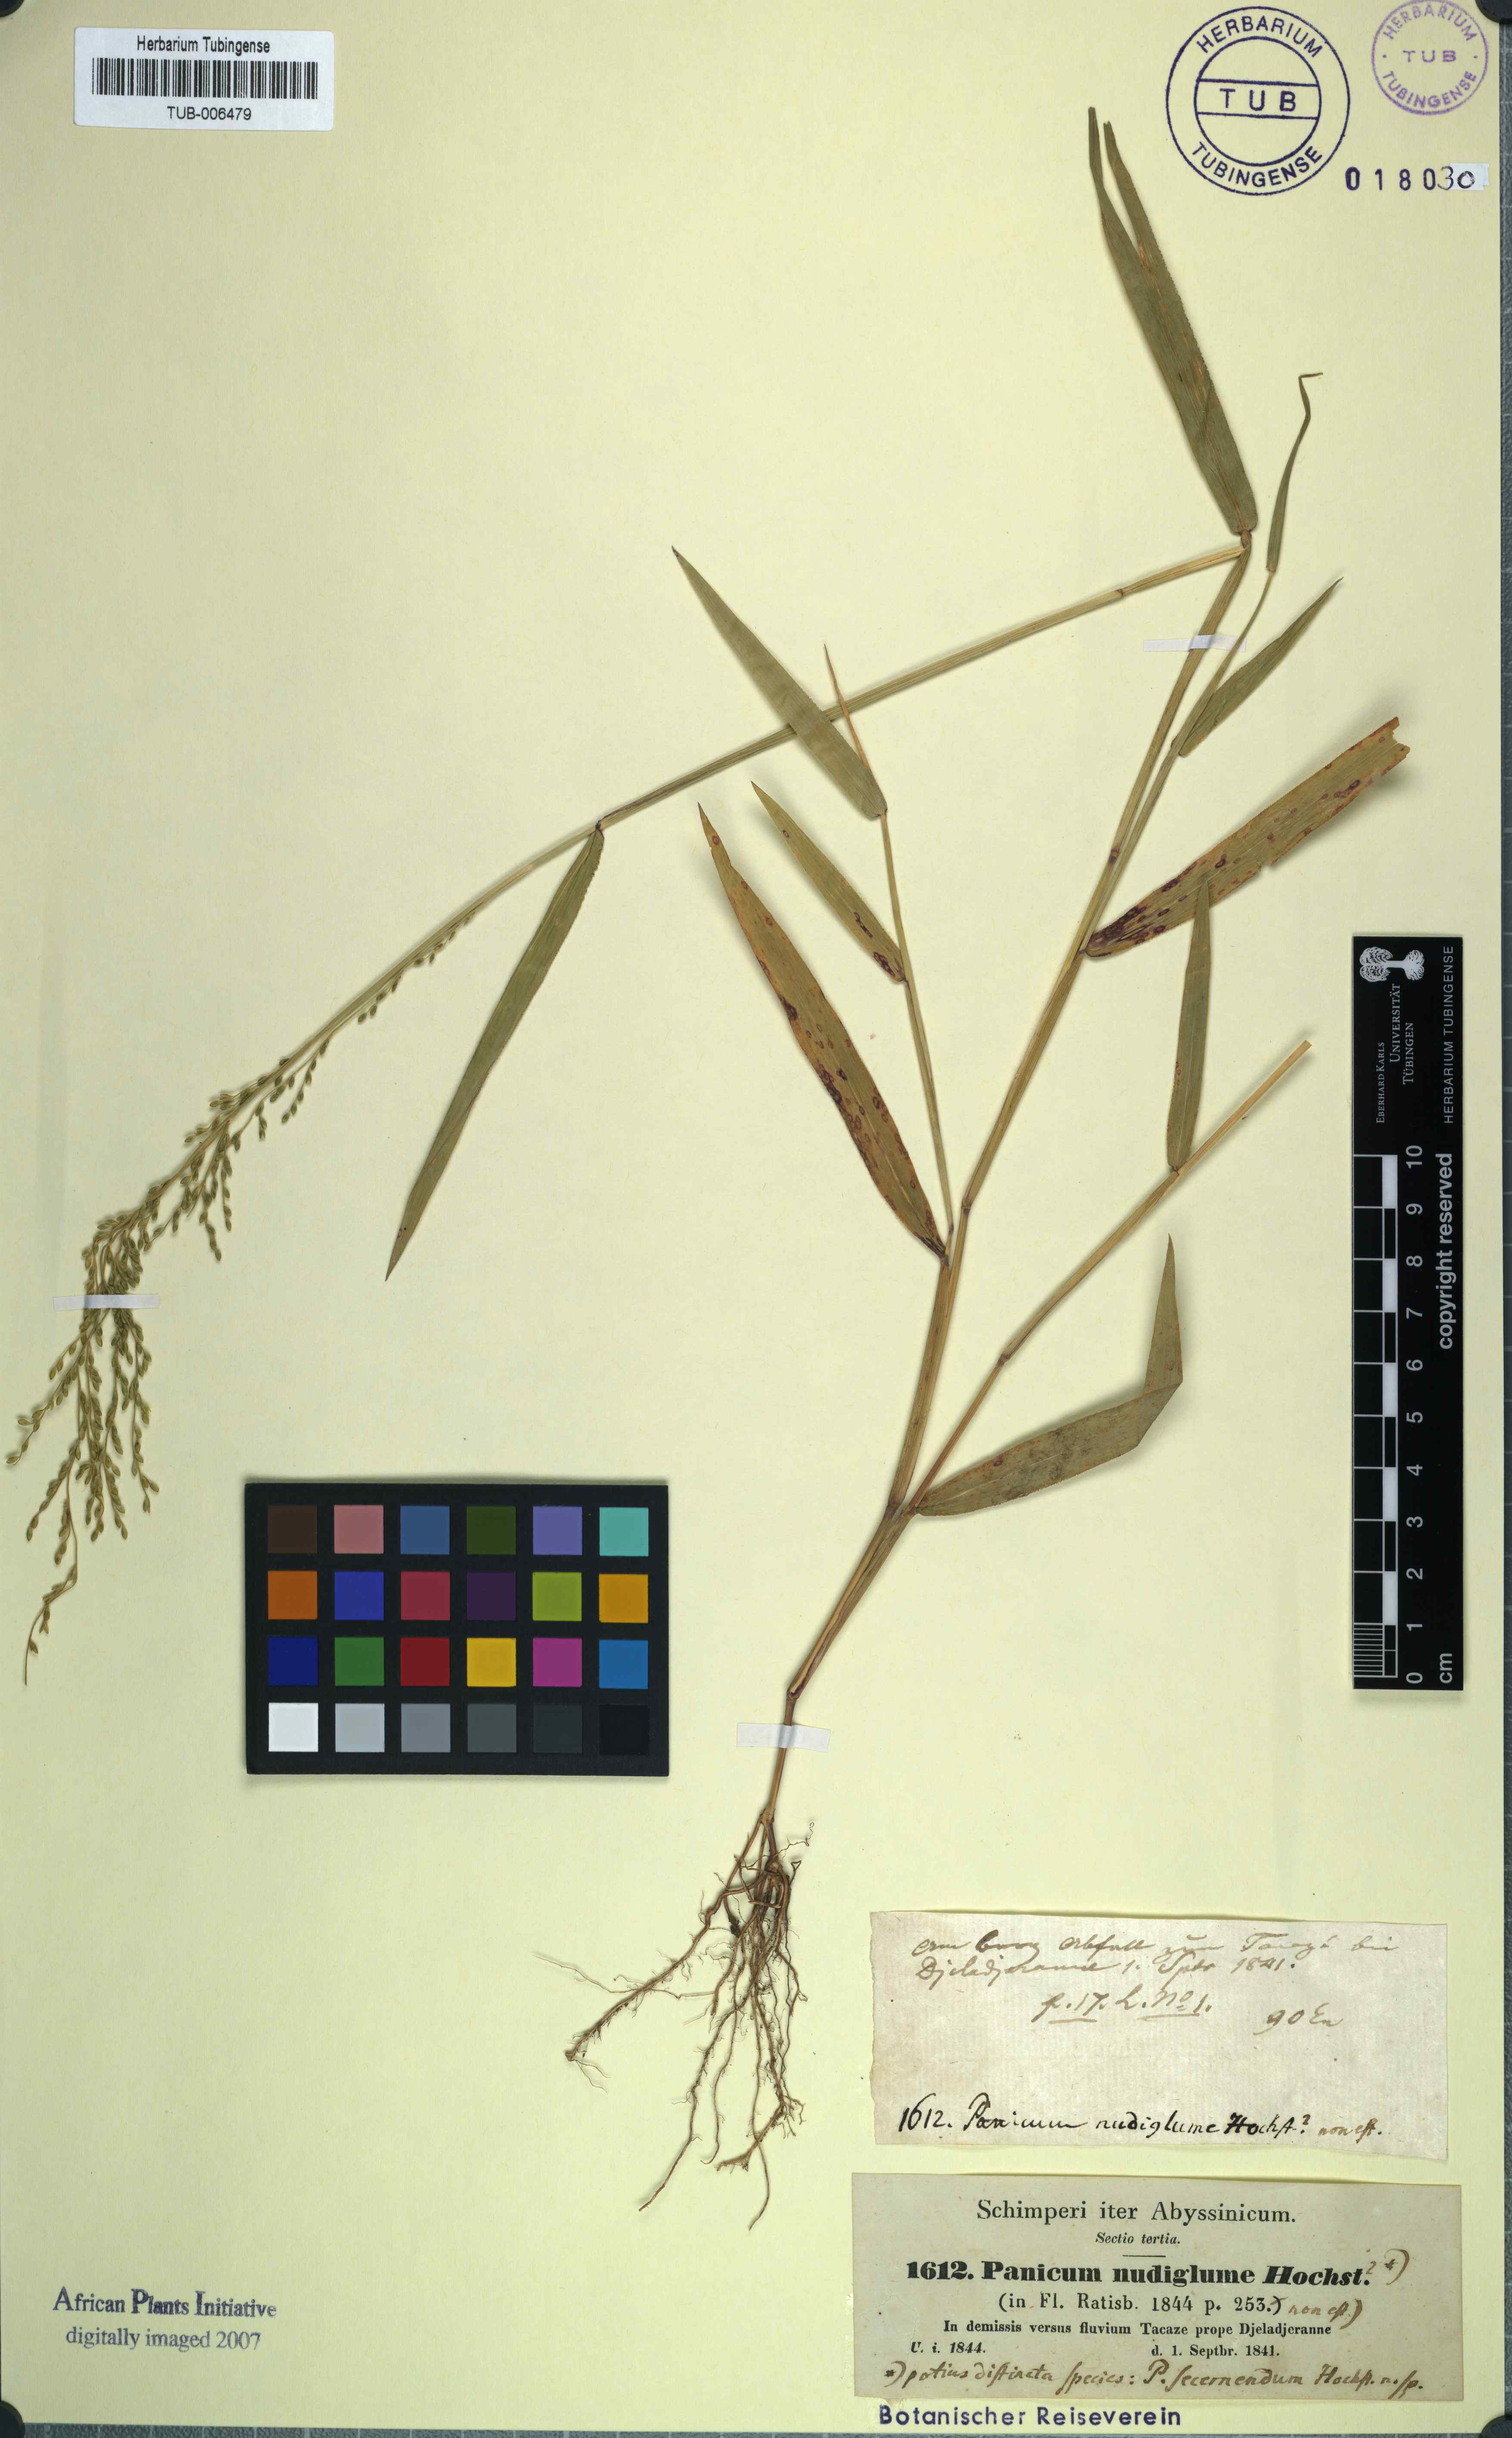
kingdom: Plantae
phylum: Tracheophyta
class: Liliopsida
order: Poales
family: Poaceae
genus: Urochloa
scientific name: Urochloa ramosa
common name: Browntop millet
